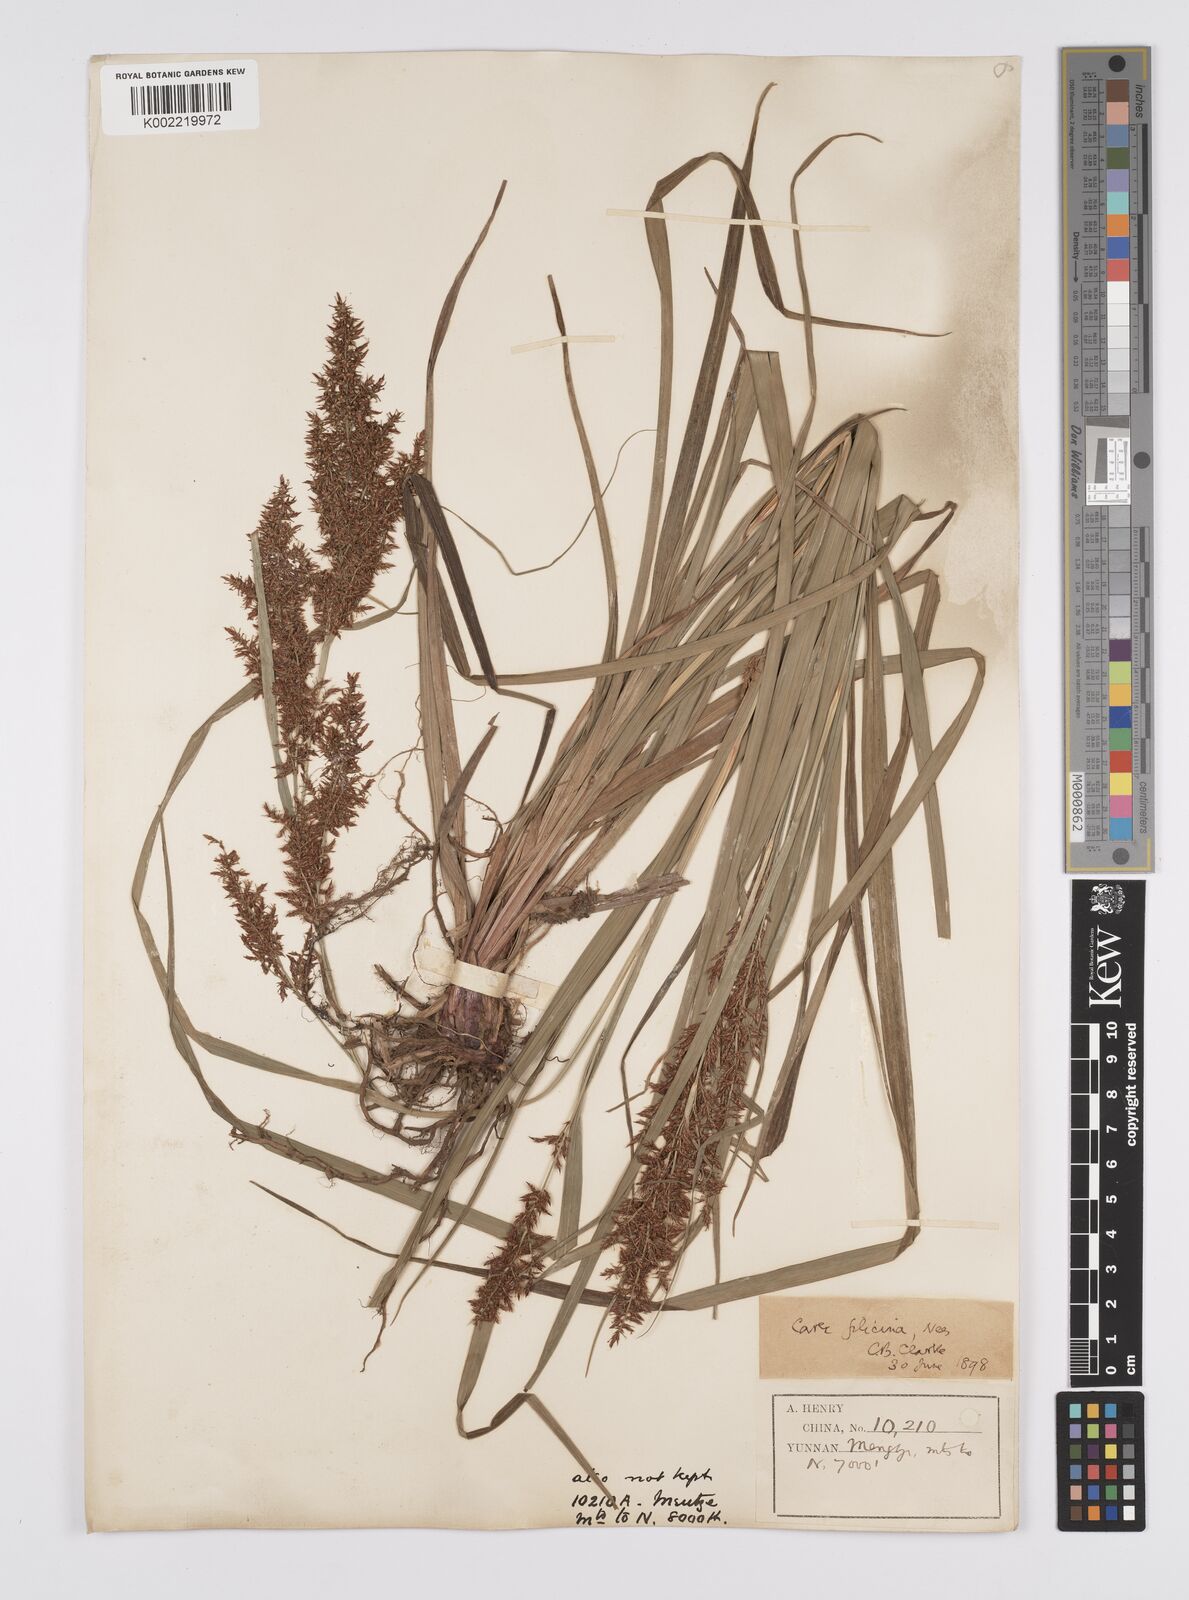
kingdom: Plantae
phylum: Tracheophyta
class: Liliopsida
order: Poales
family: Cyperaceae
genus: Carex
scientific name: Carex filicina
